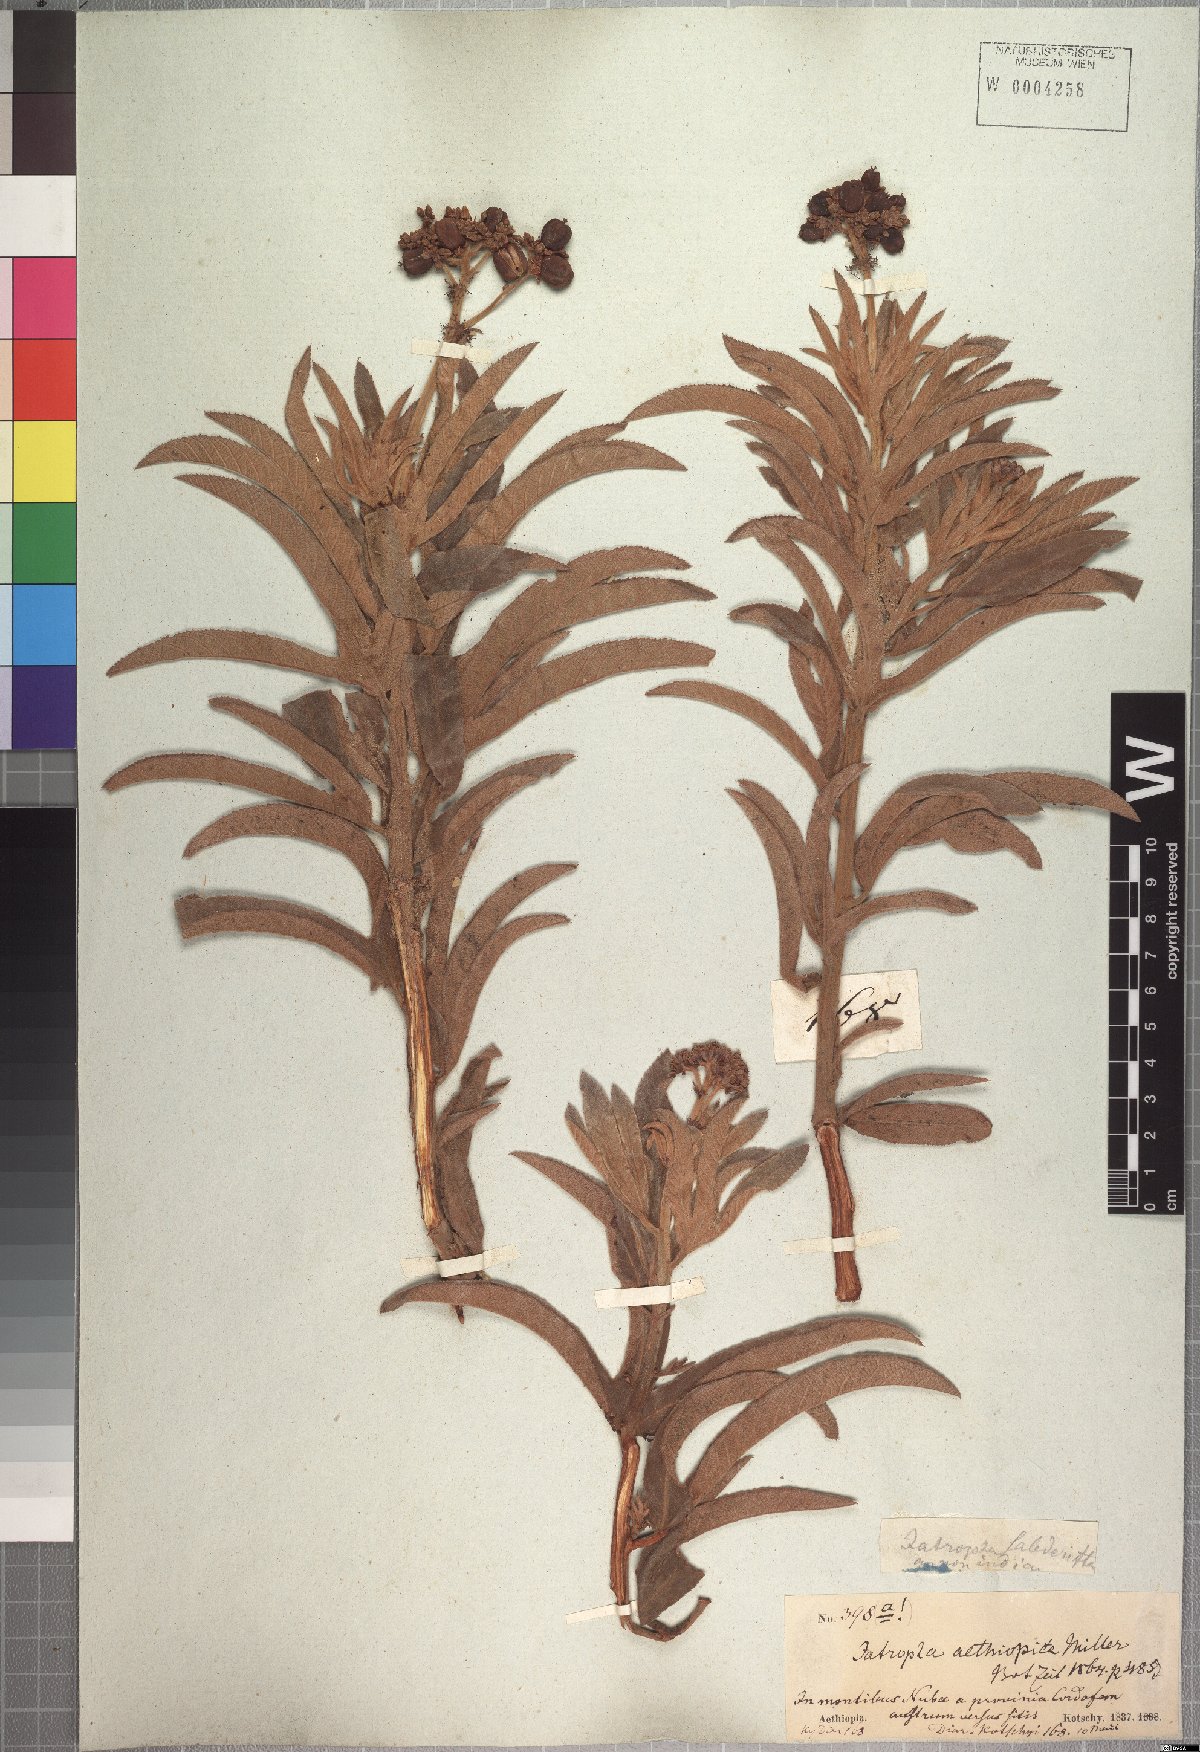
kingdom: Plantae
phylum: Tracheophyta
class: Magnoliopsida
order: Malpighiales
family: Euphorbiaceae
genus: Jatropha
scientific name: Jatropha aethiopica
